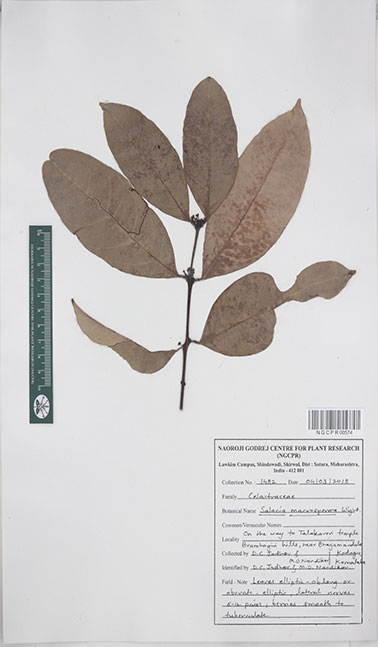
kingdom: Plantae
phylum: Tracheophyta
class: Magnoliopsida
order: Celastrales
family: Celastraceae
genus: Salacia
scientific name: Salacia macrosperma
